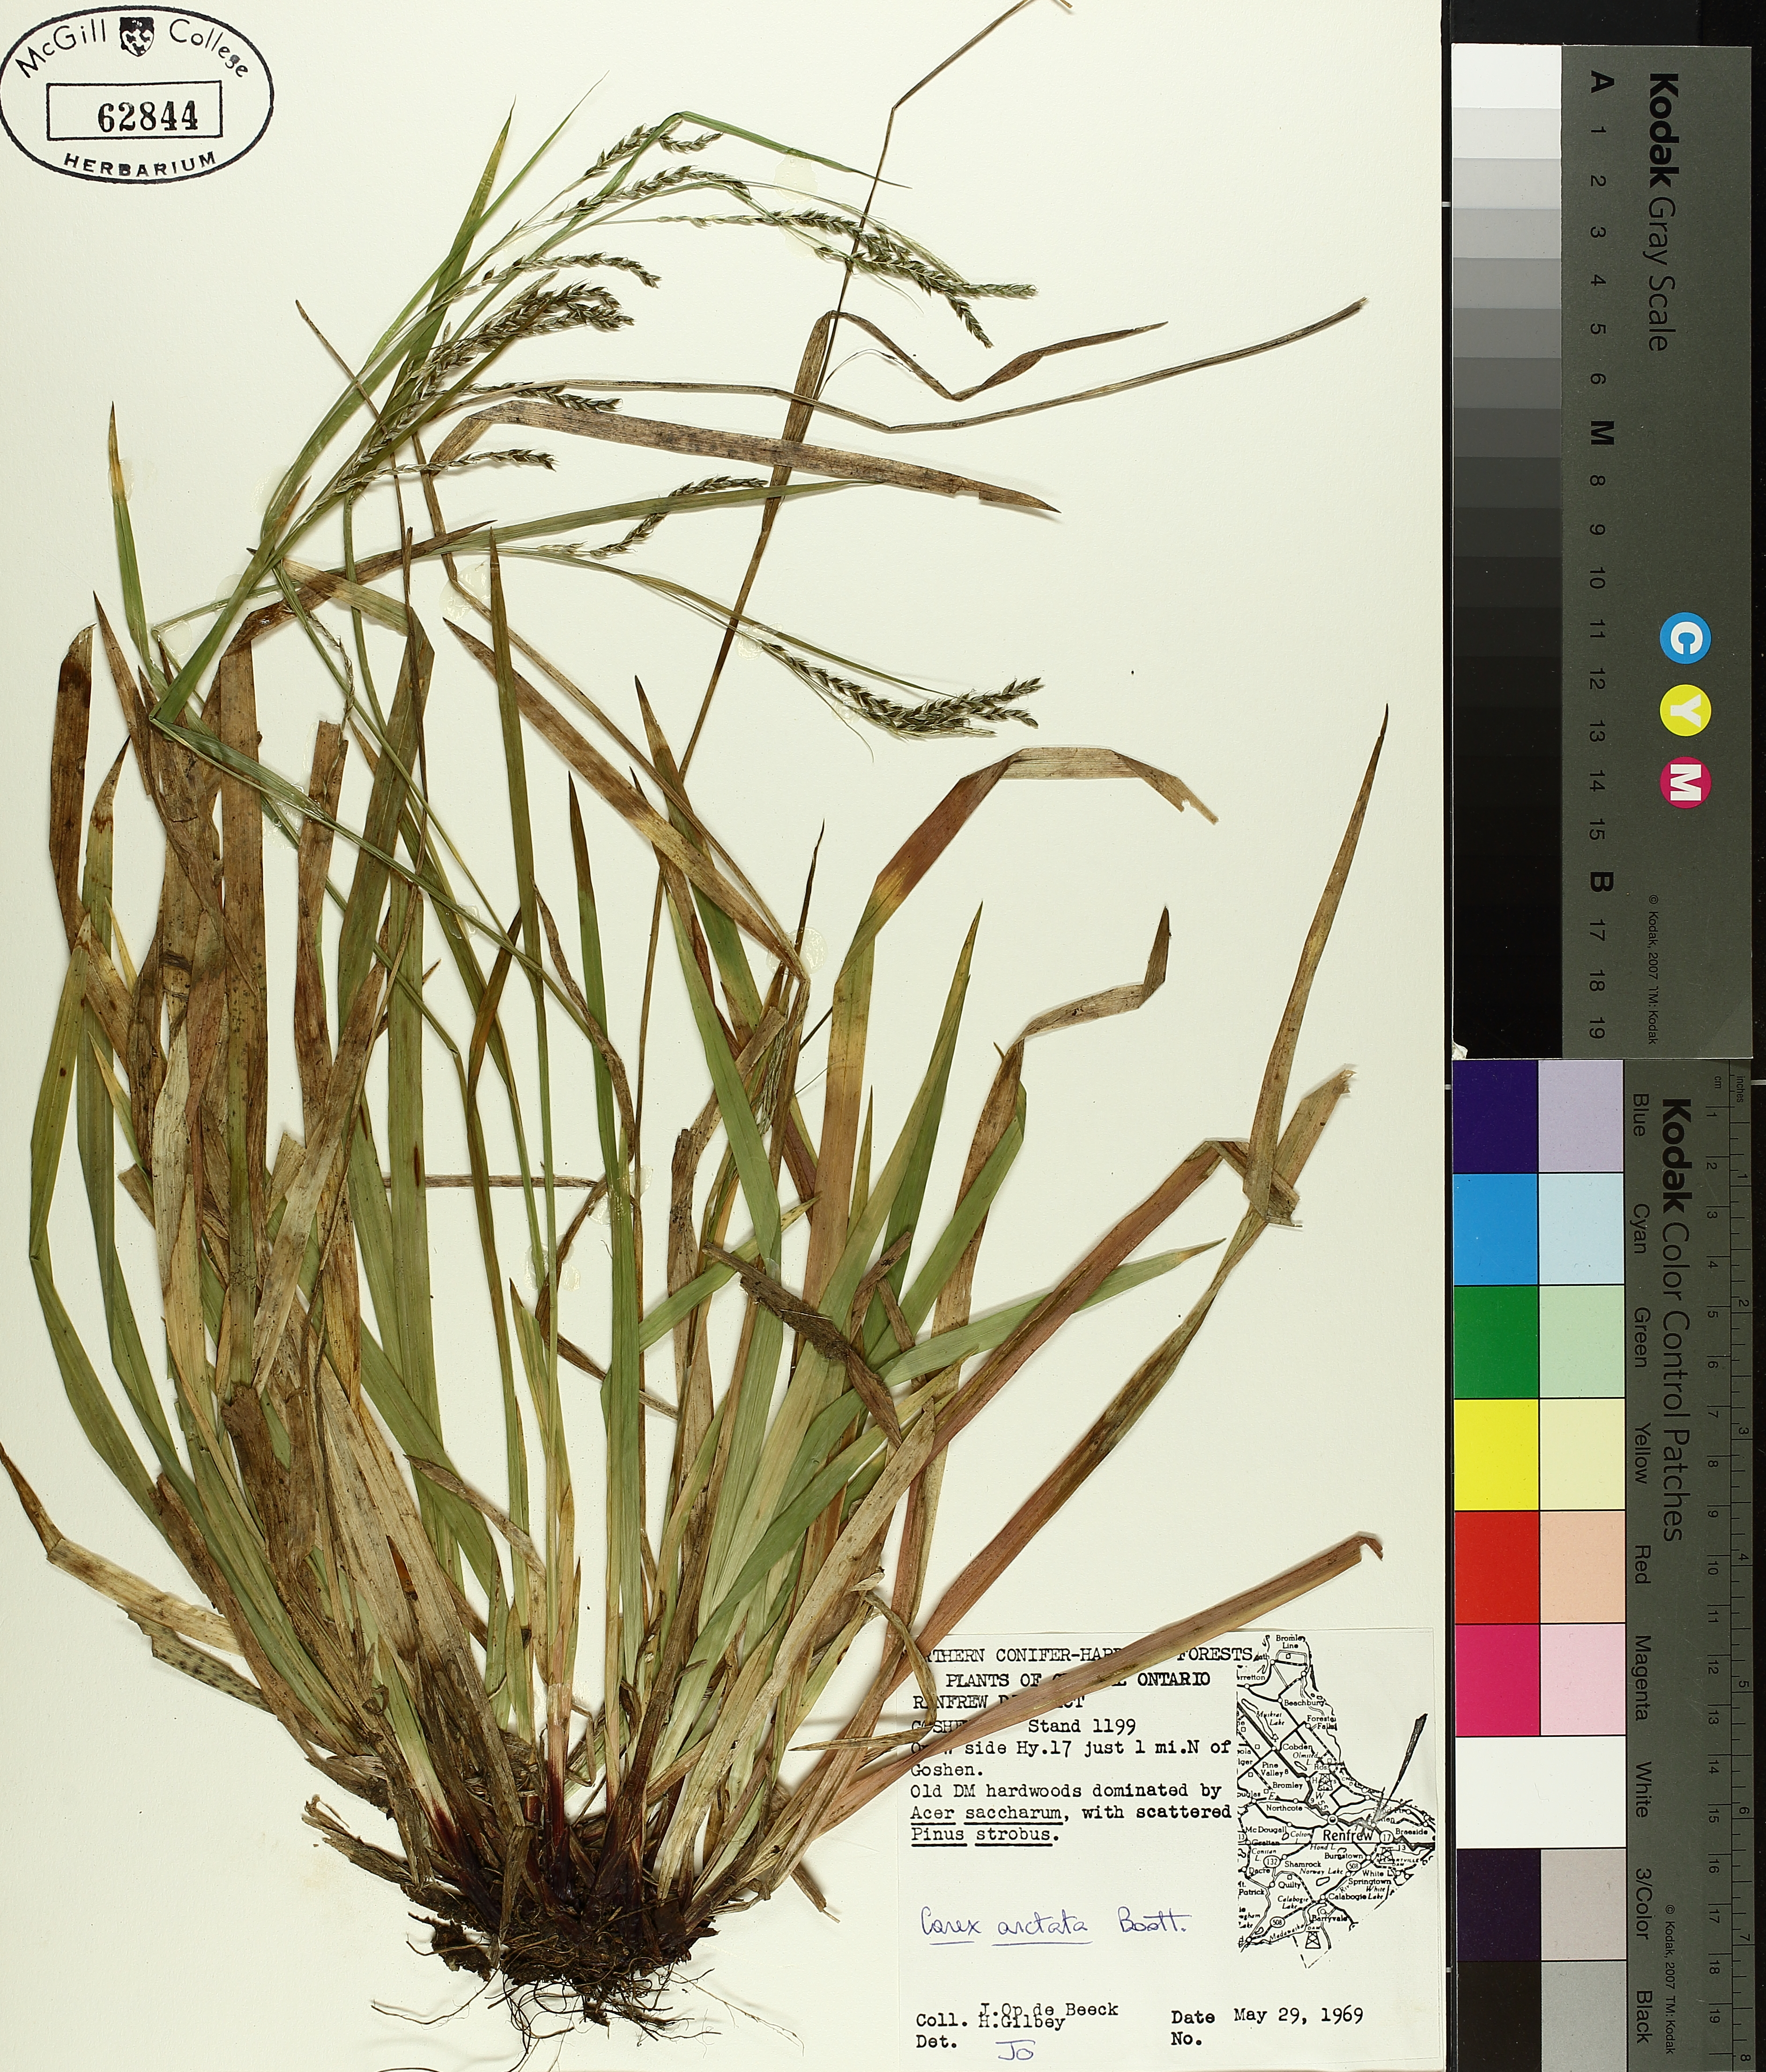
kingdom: Plantae
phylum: Tracheophyta
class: Liliopsida
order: Poales
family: Cyperaceae
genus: Carex
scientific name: Carex arctata
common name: Black sedge
